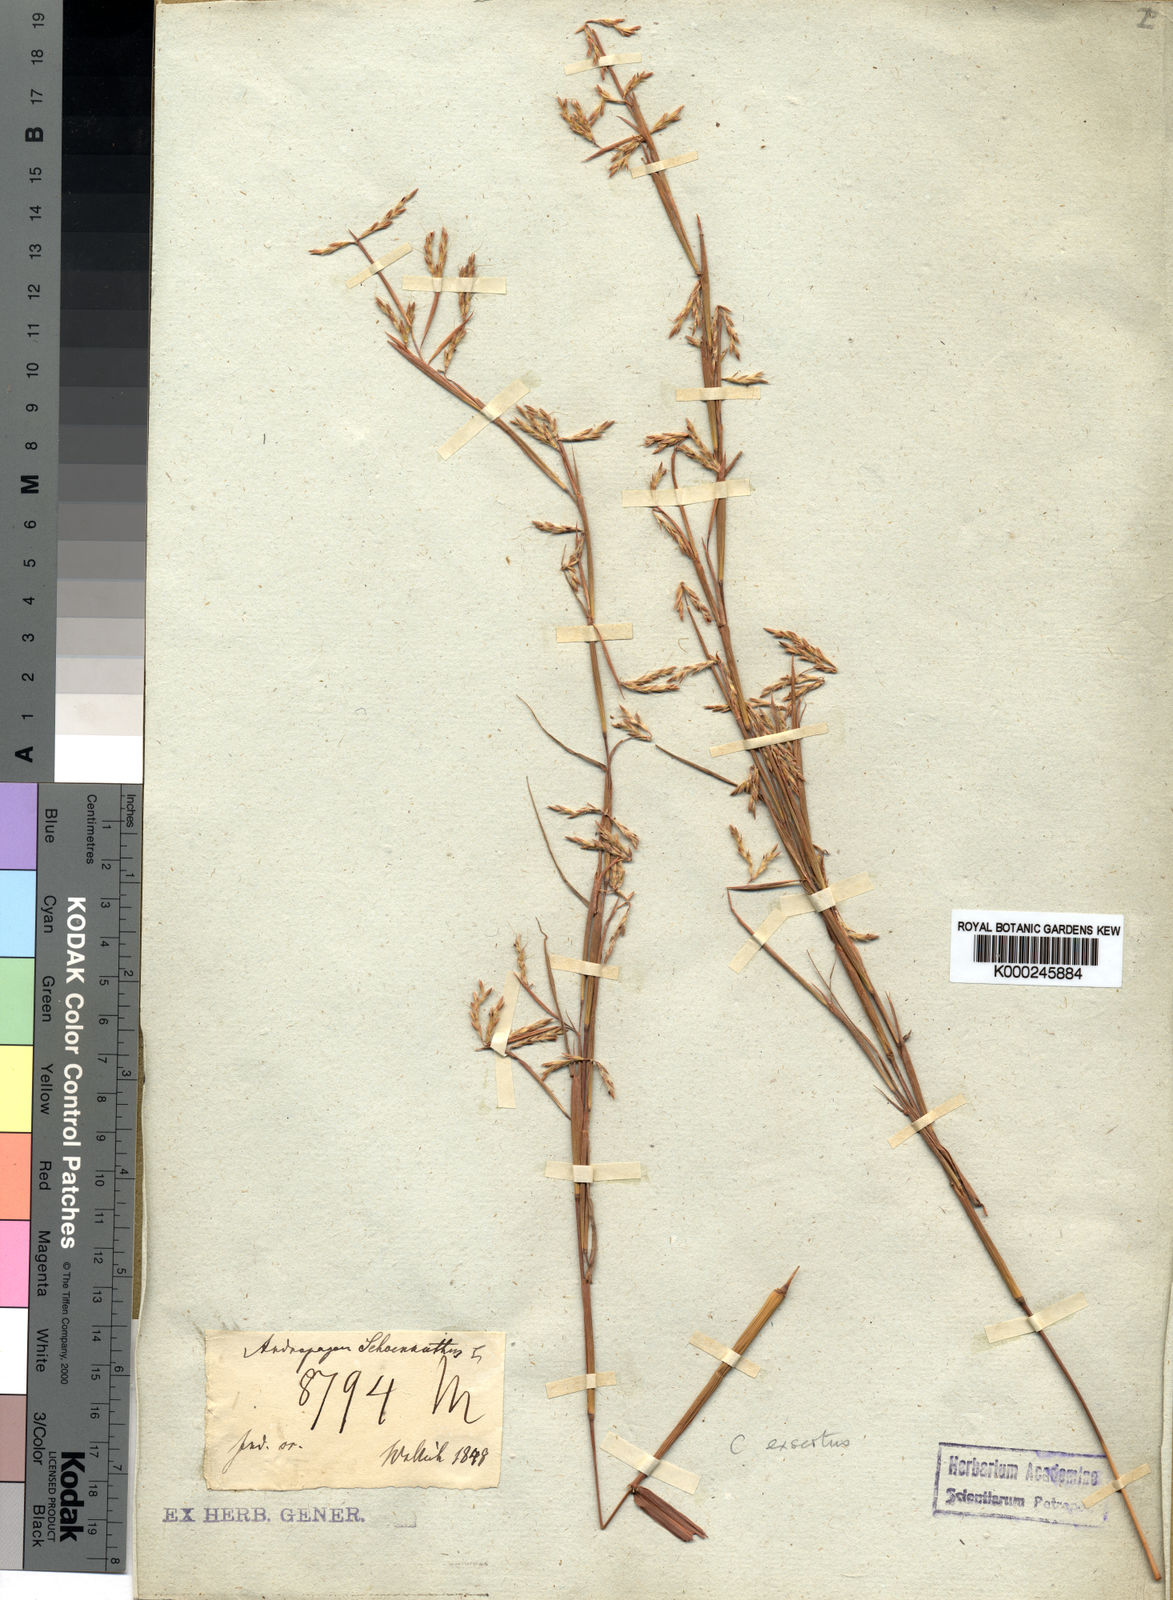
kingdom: Plantae
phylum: Tracheophyta
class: Liliopsida
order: Poales
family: Poaceae
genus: Cymbopogon
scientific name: Cymbopogon exsertus
